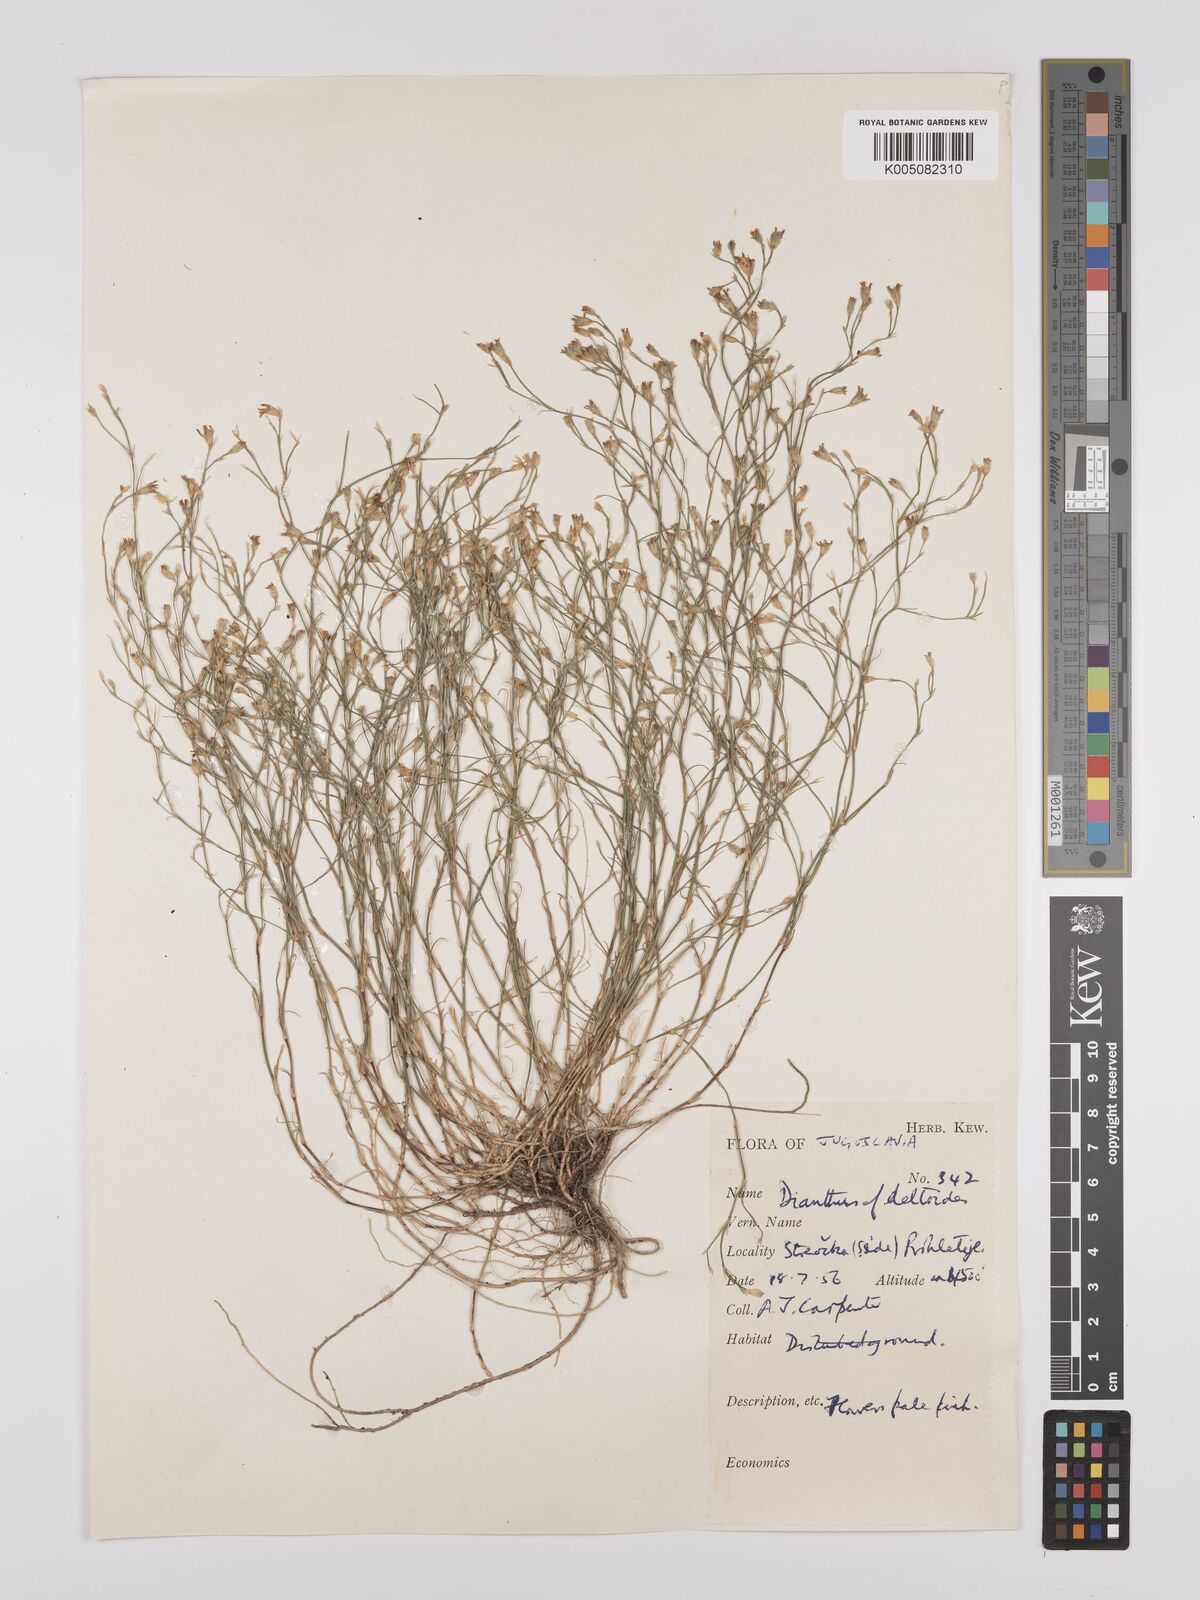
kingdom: Plantae
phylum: Tracheophyta
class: Magnoliopsida
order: Caryophyllales
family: Caryophyllaceae
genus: Petrorhagia
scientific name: Petrorhagia saxifraga
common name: Tunicflower
